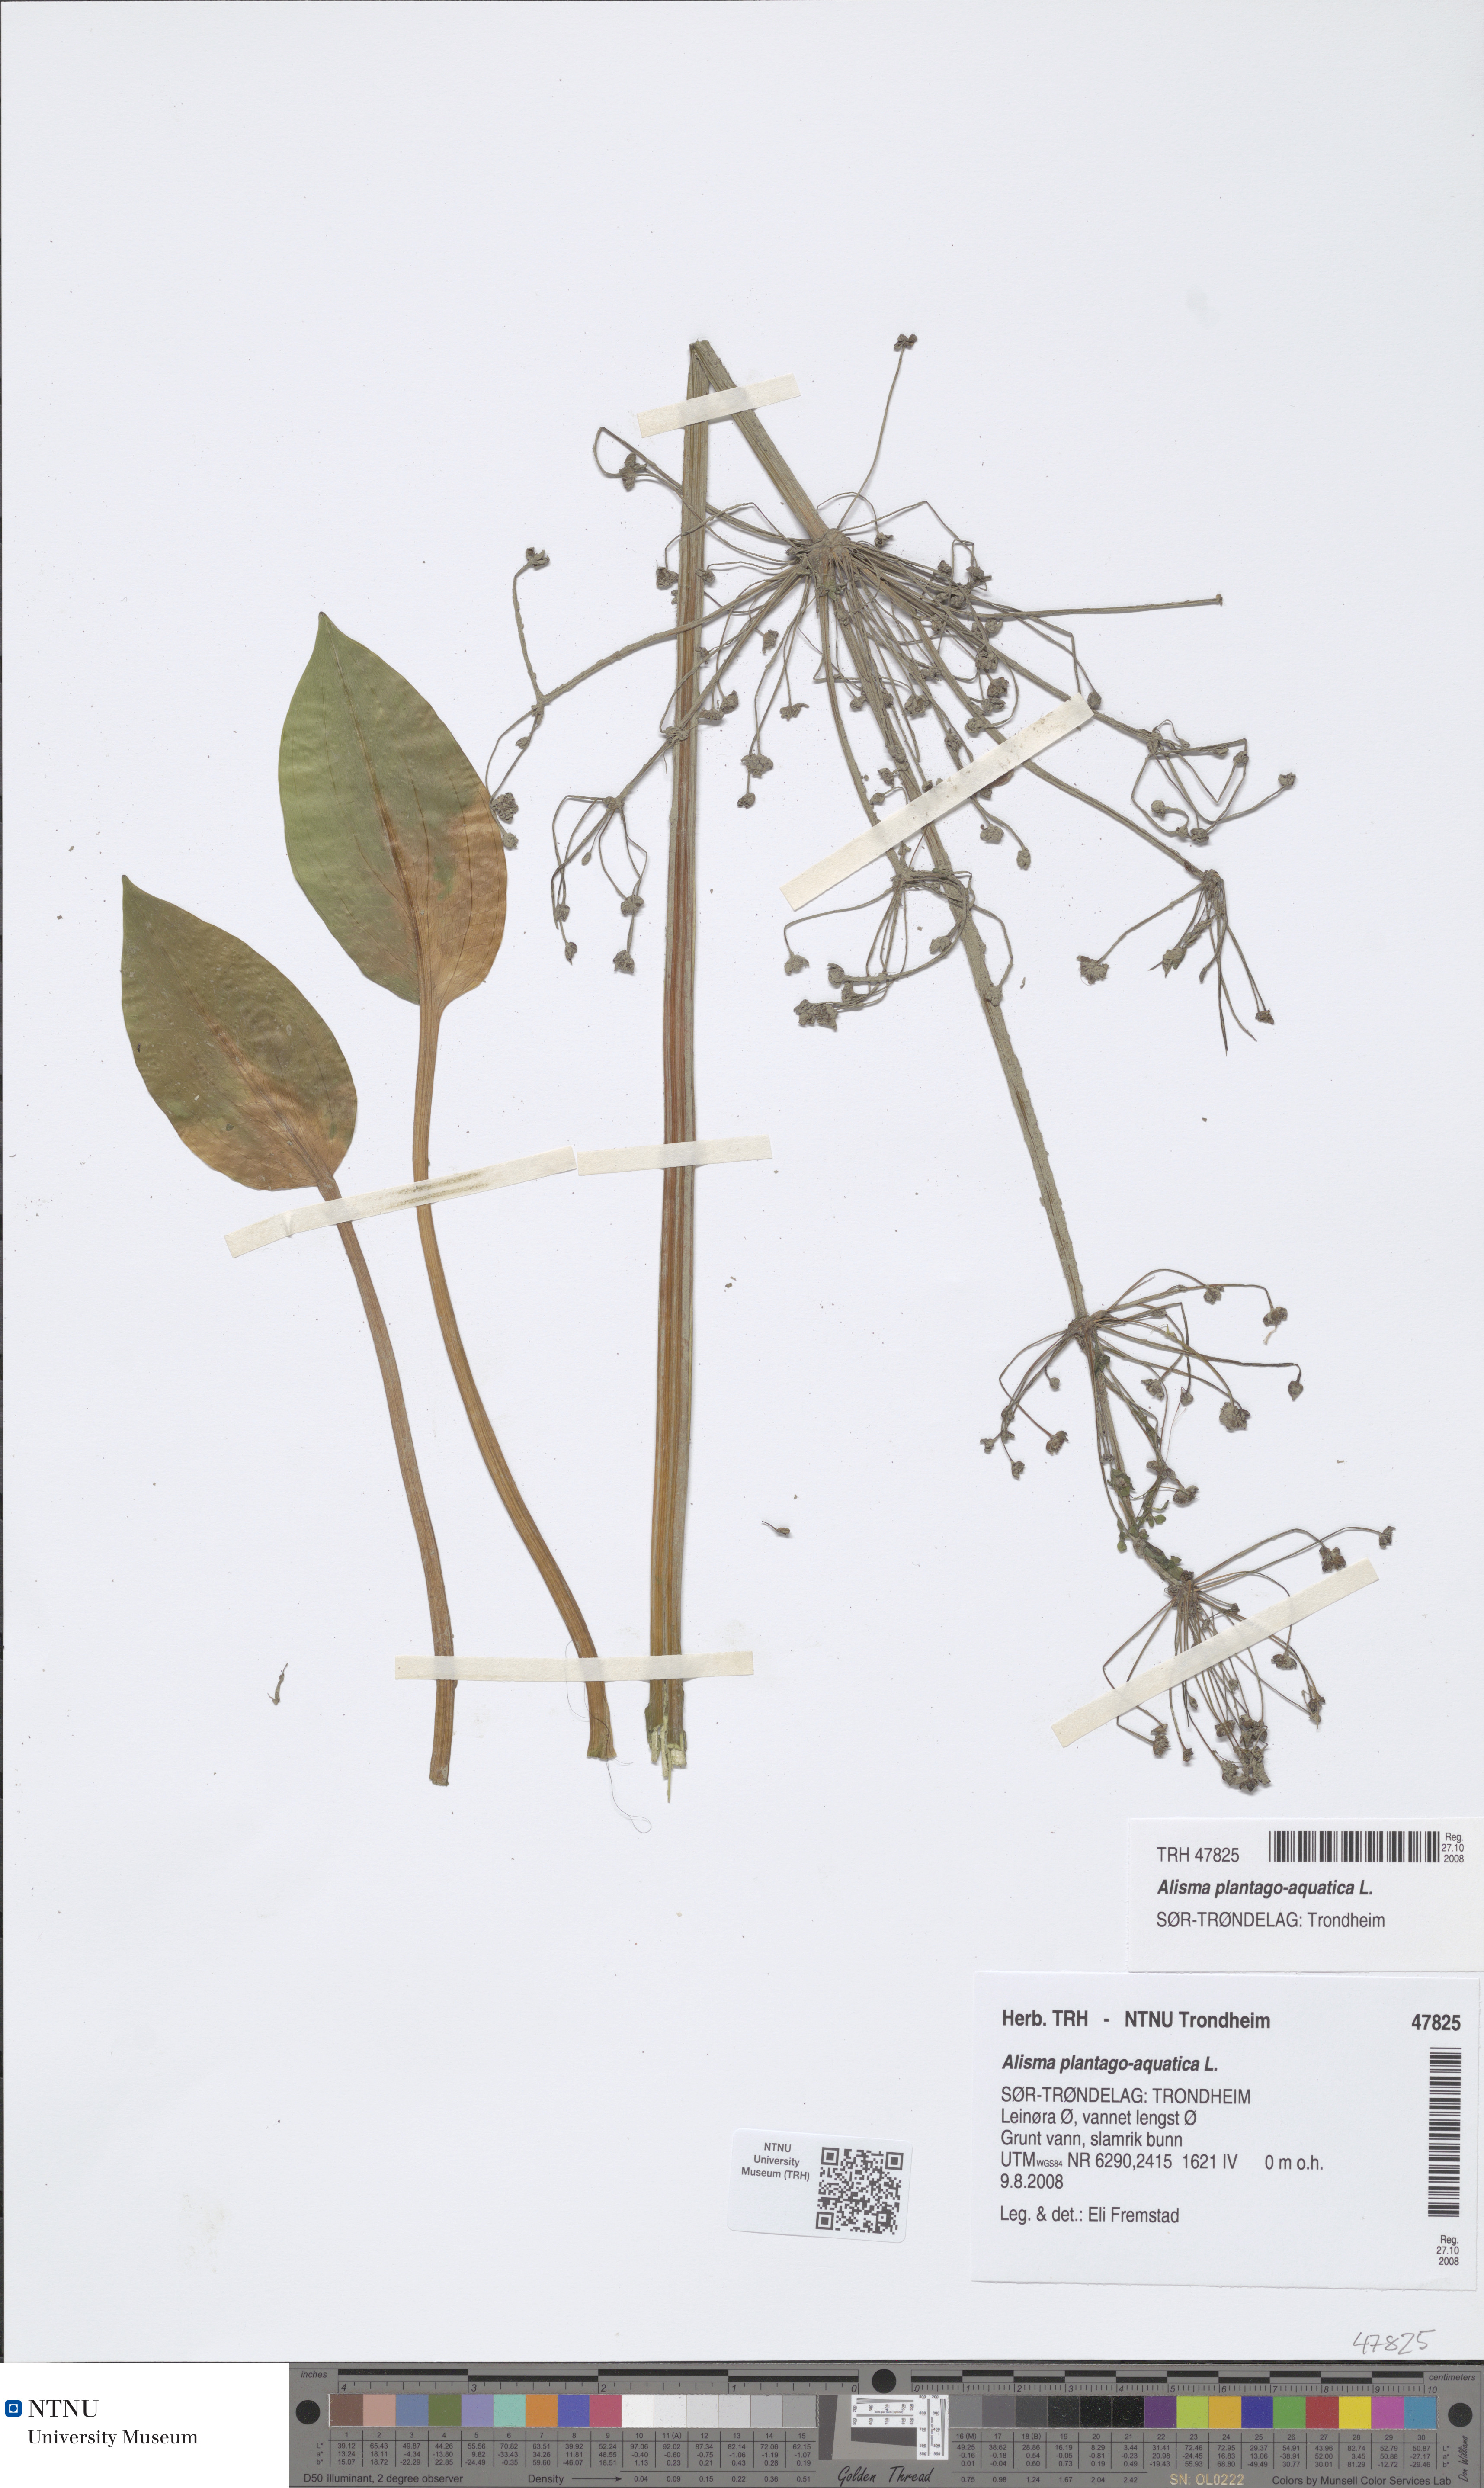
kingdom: Plantae
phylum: Tracheophyta
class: Liliopsida
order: Alismatales
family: Alismataceae
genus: Alisma
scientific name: Alisma plantago-aquatica
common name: Water-plantain
